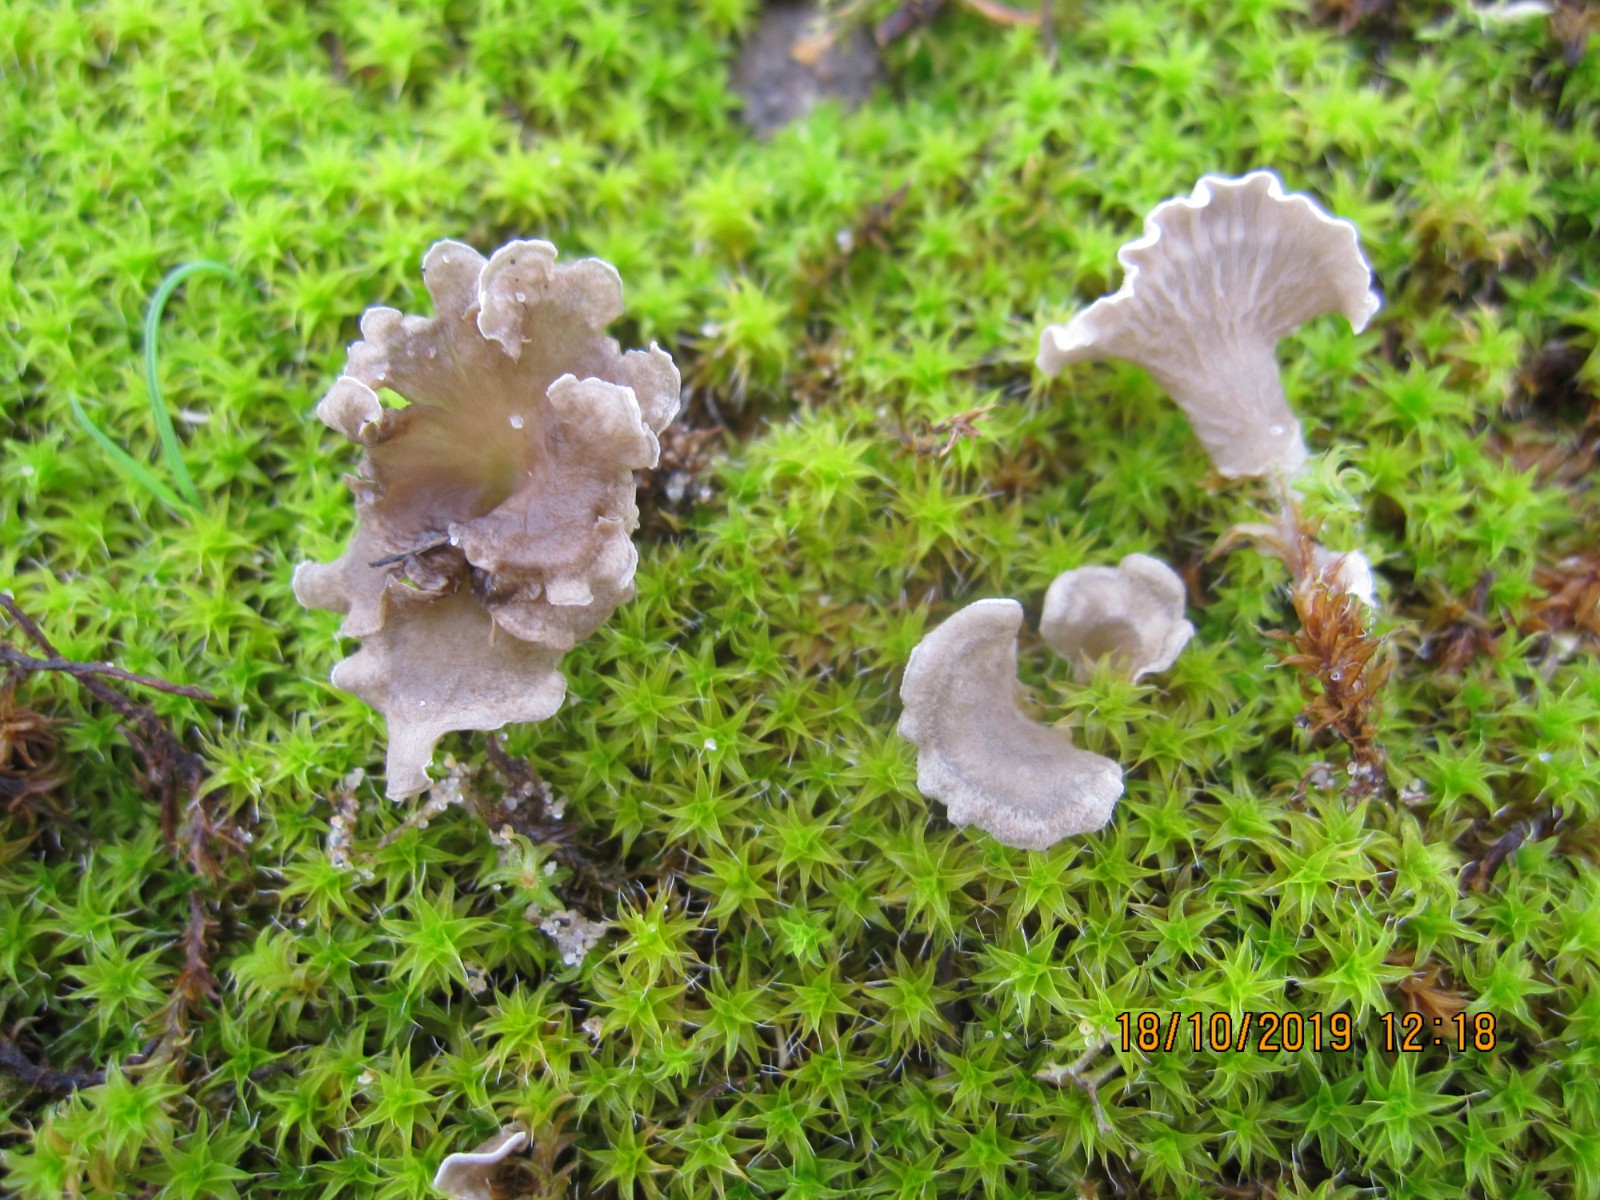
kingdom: Fungi
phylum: Basidiomycota
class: Agaricomycetes
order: Agaricales
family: Hygrophoraceae
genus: Arrhenia
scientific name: Arrhenia spathulata
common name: skæv fontænehat
